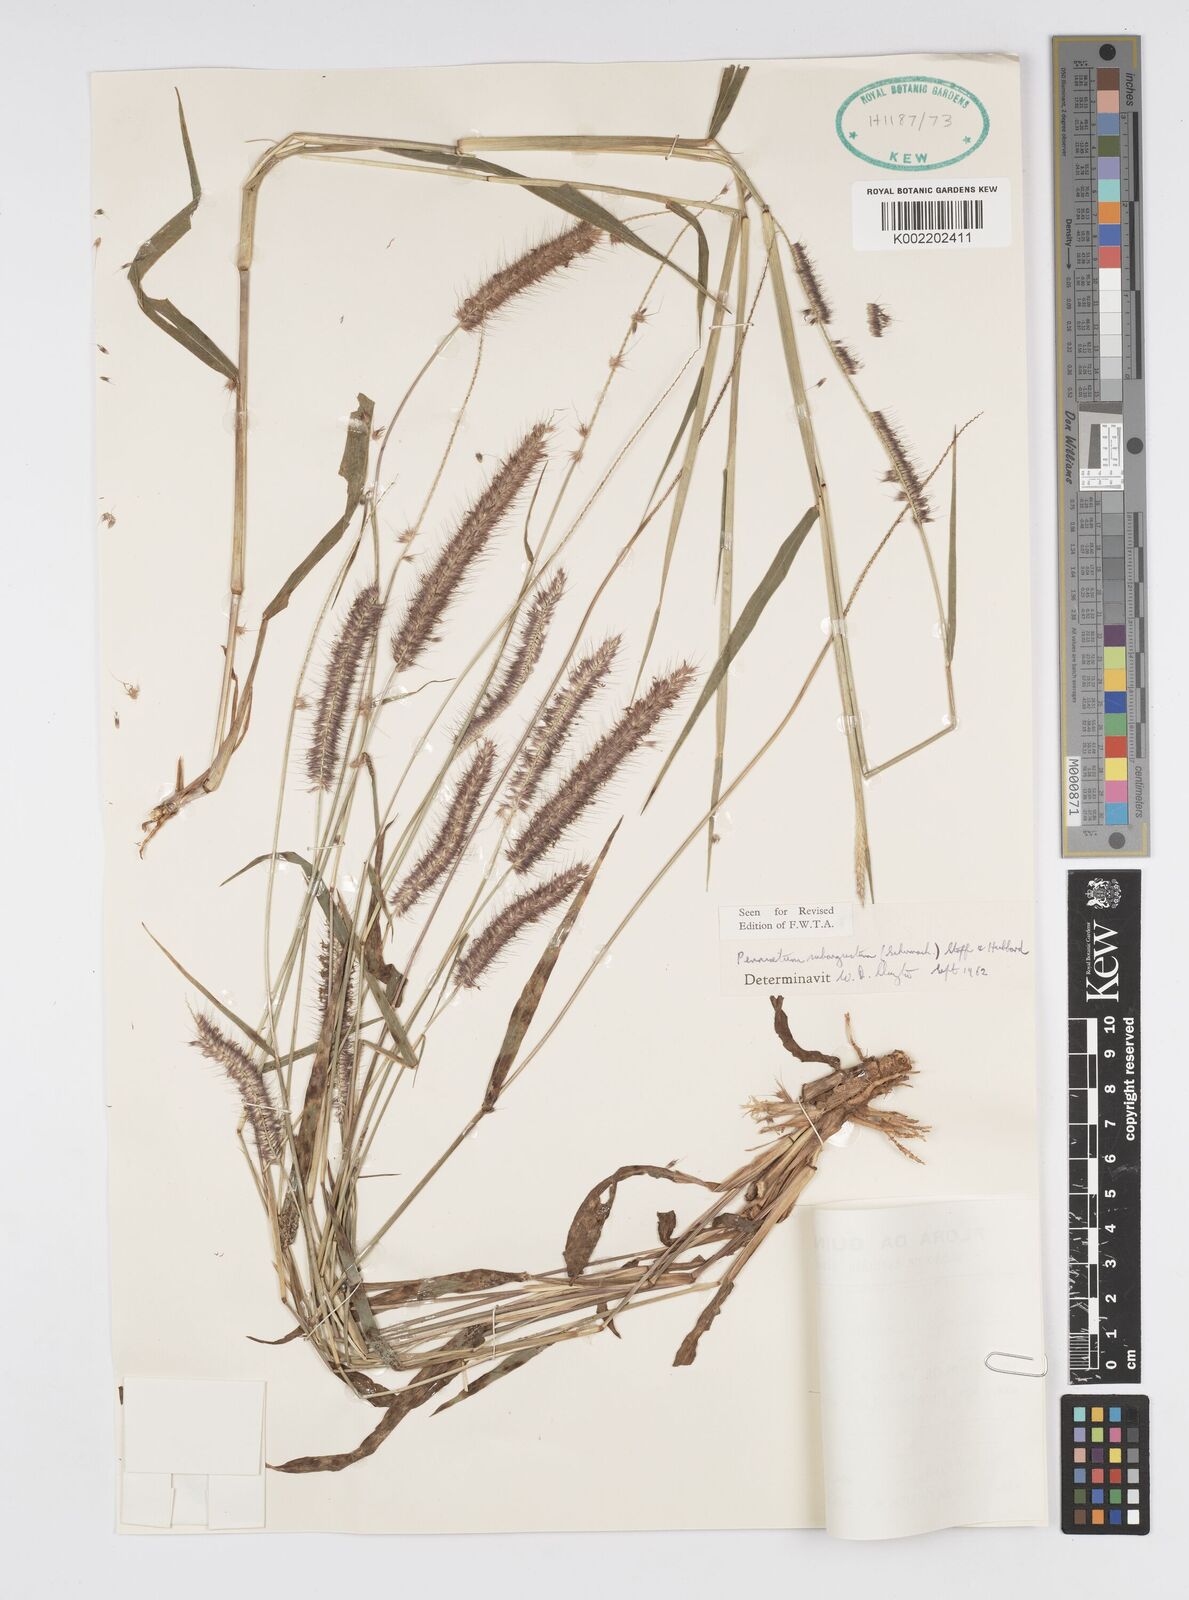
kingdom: Plantae
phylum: Tracheophyta
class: Liliopsida
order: Poales
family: Poaceae
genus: Setaria
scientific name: Setaria parviflora
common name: Knotroot bristle-grass
